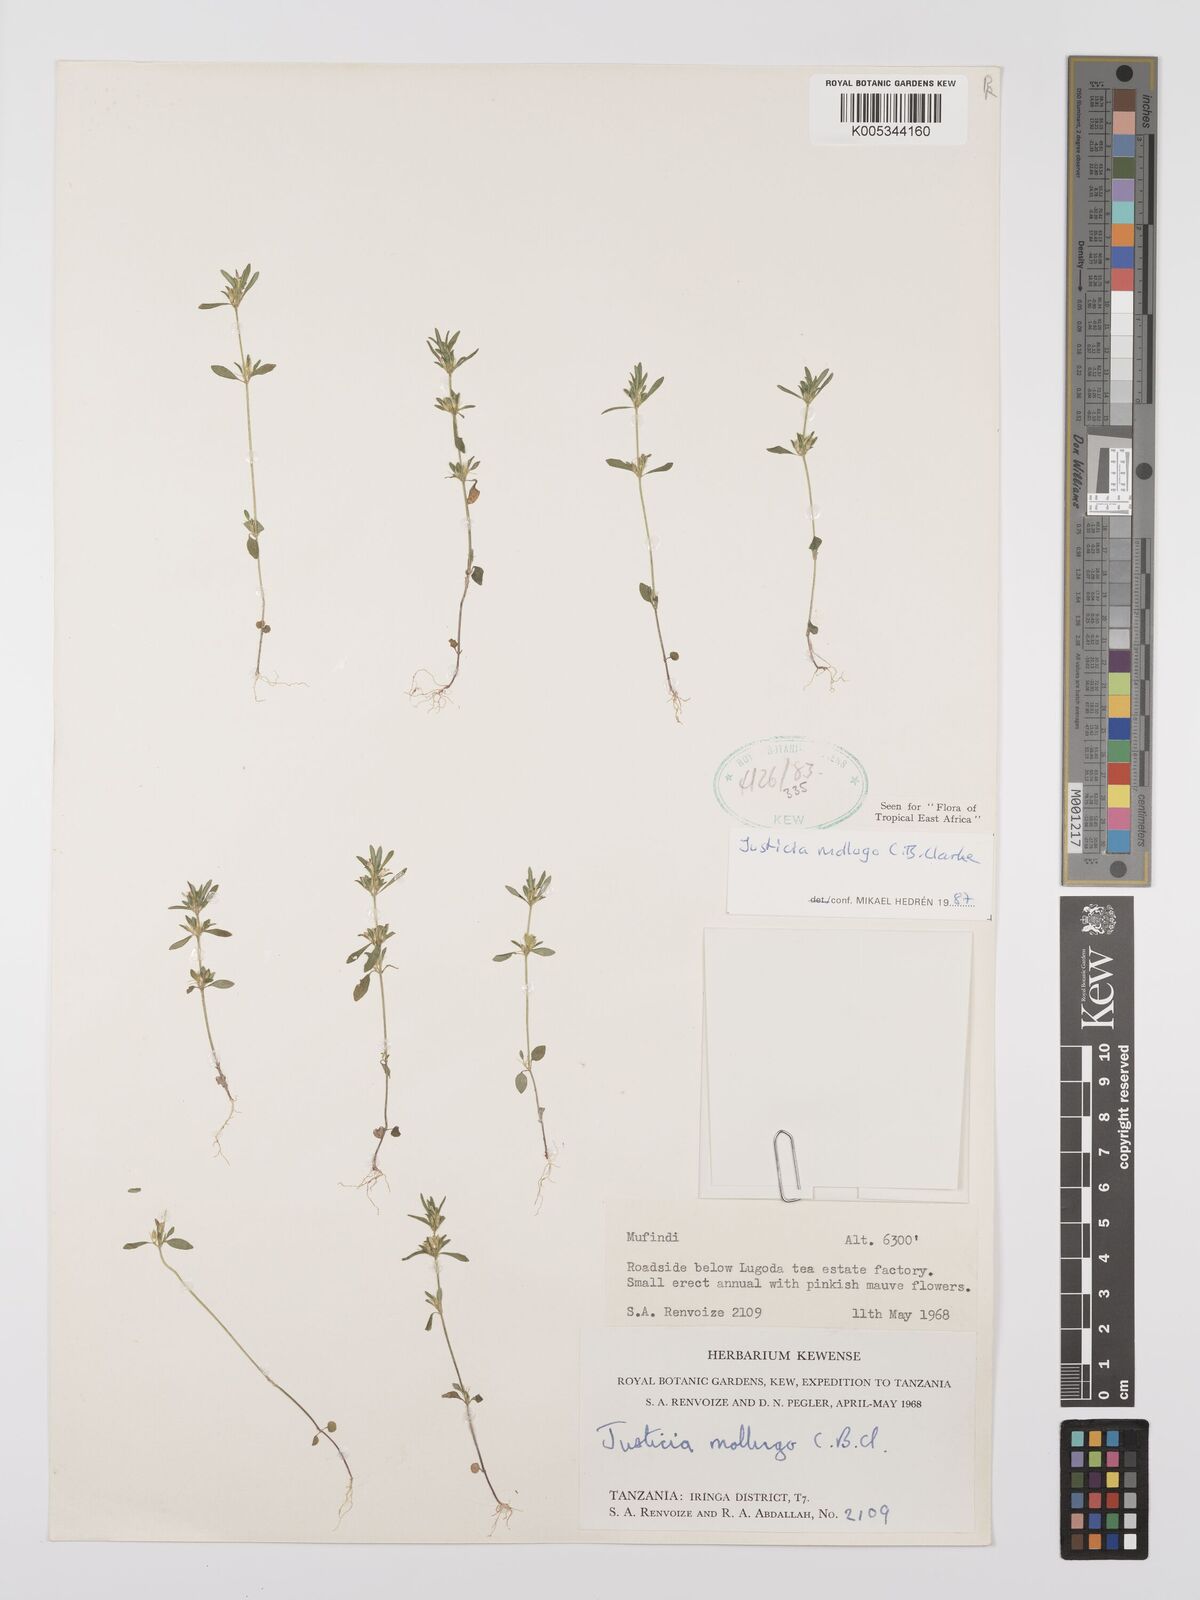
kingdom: Plantae
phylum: Tracheophyta
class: Magnoliopsida
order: Lamiales
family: Acanthaceae
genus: Justicia
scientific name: Justicia mollugo
